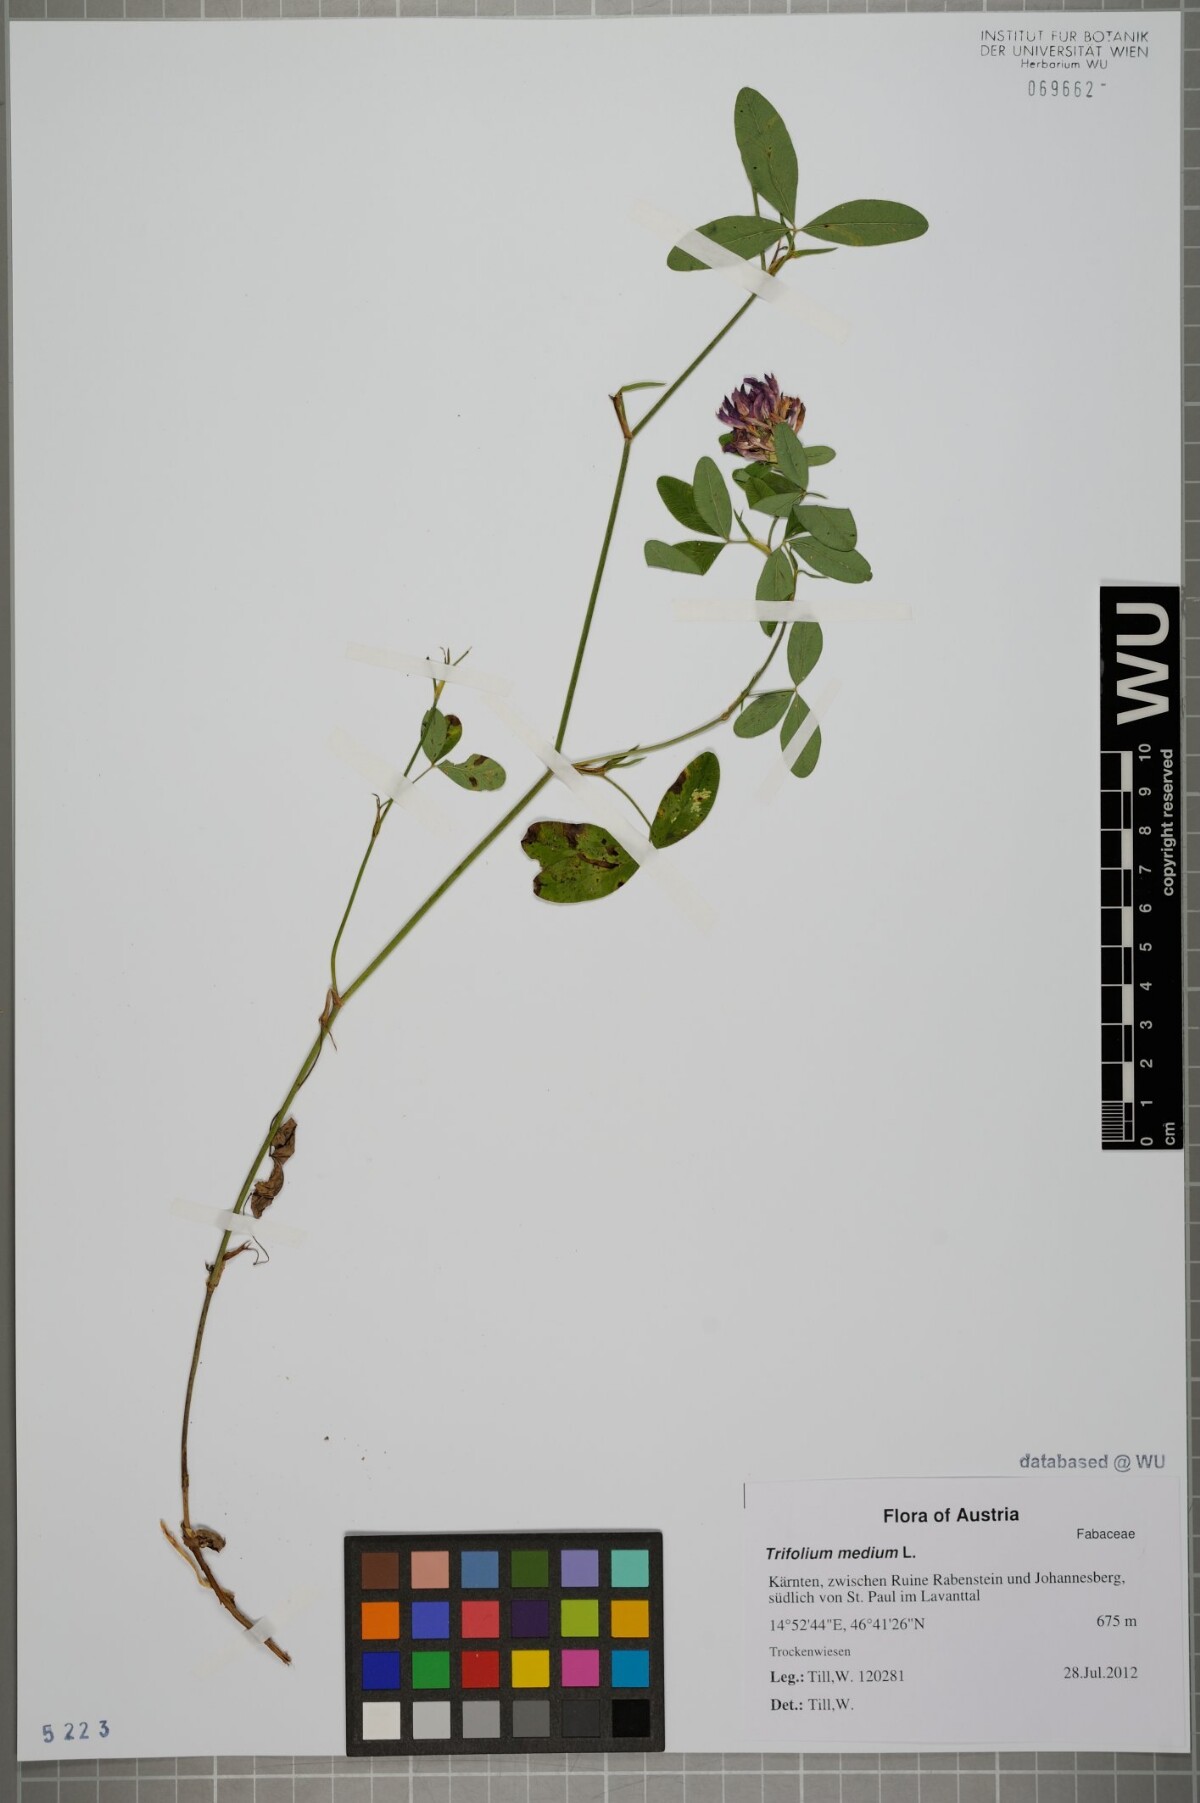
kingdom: Plantae
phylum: Tracheophyta
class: Magnoliopsida
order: Fabales
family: Fabaceae
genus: Trifolium
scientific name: Trifolium medium
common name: Zigzag clover
